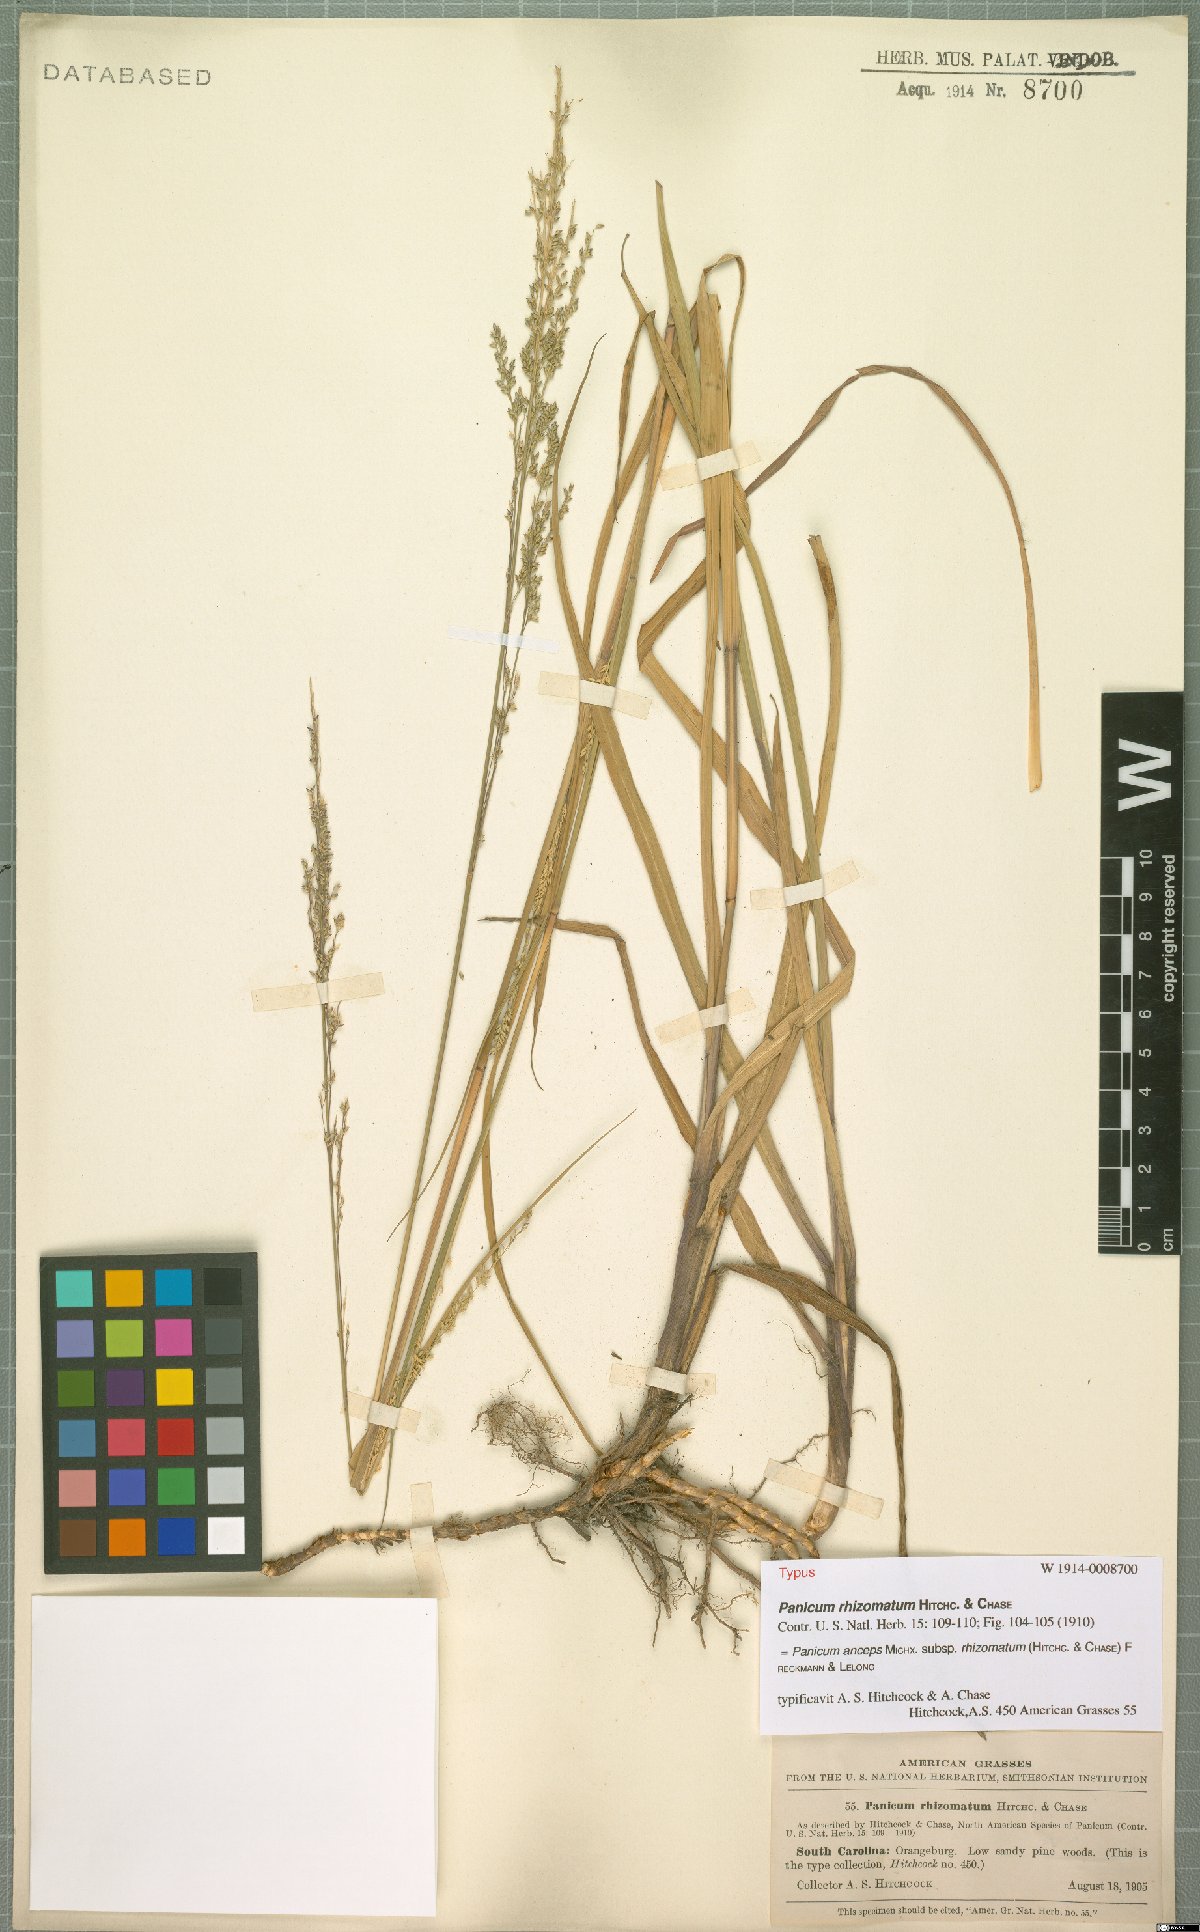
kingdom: Plantae
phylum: Tracheophyta
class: Liliopsida
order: Poales
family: Poaceae
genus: Coleataenia
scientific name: Coleataenia anceps
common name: Beaked panic grass
